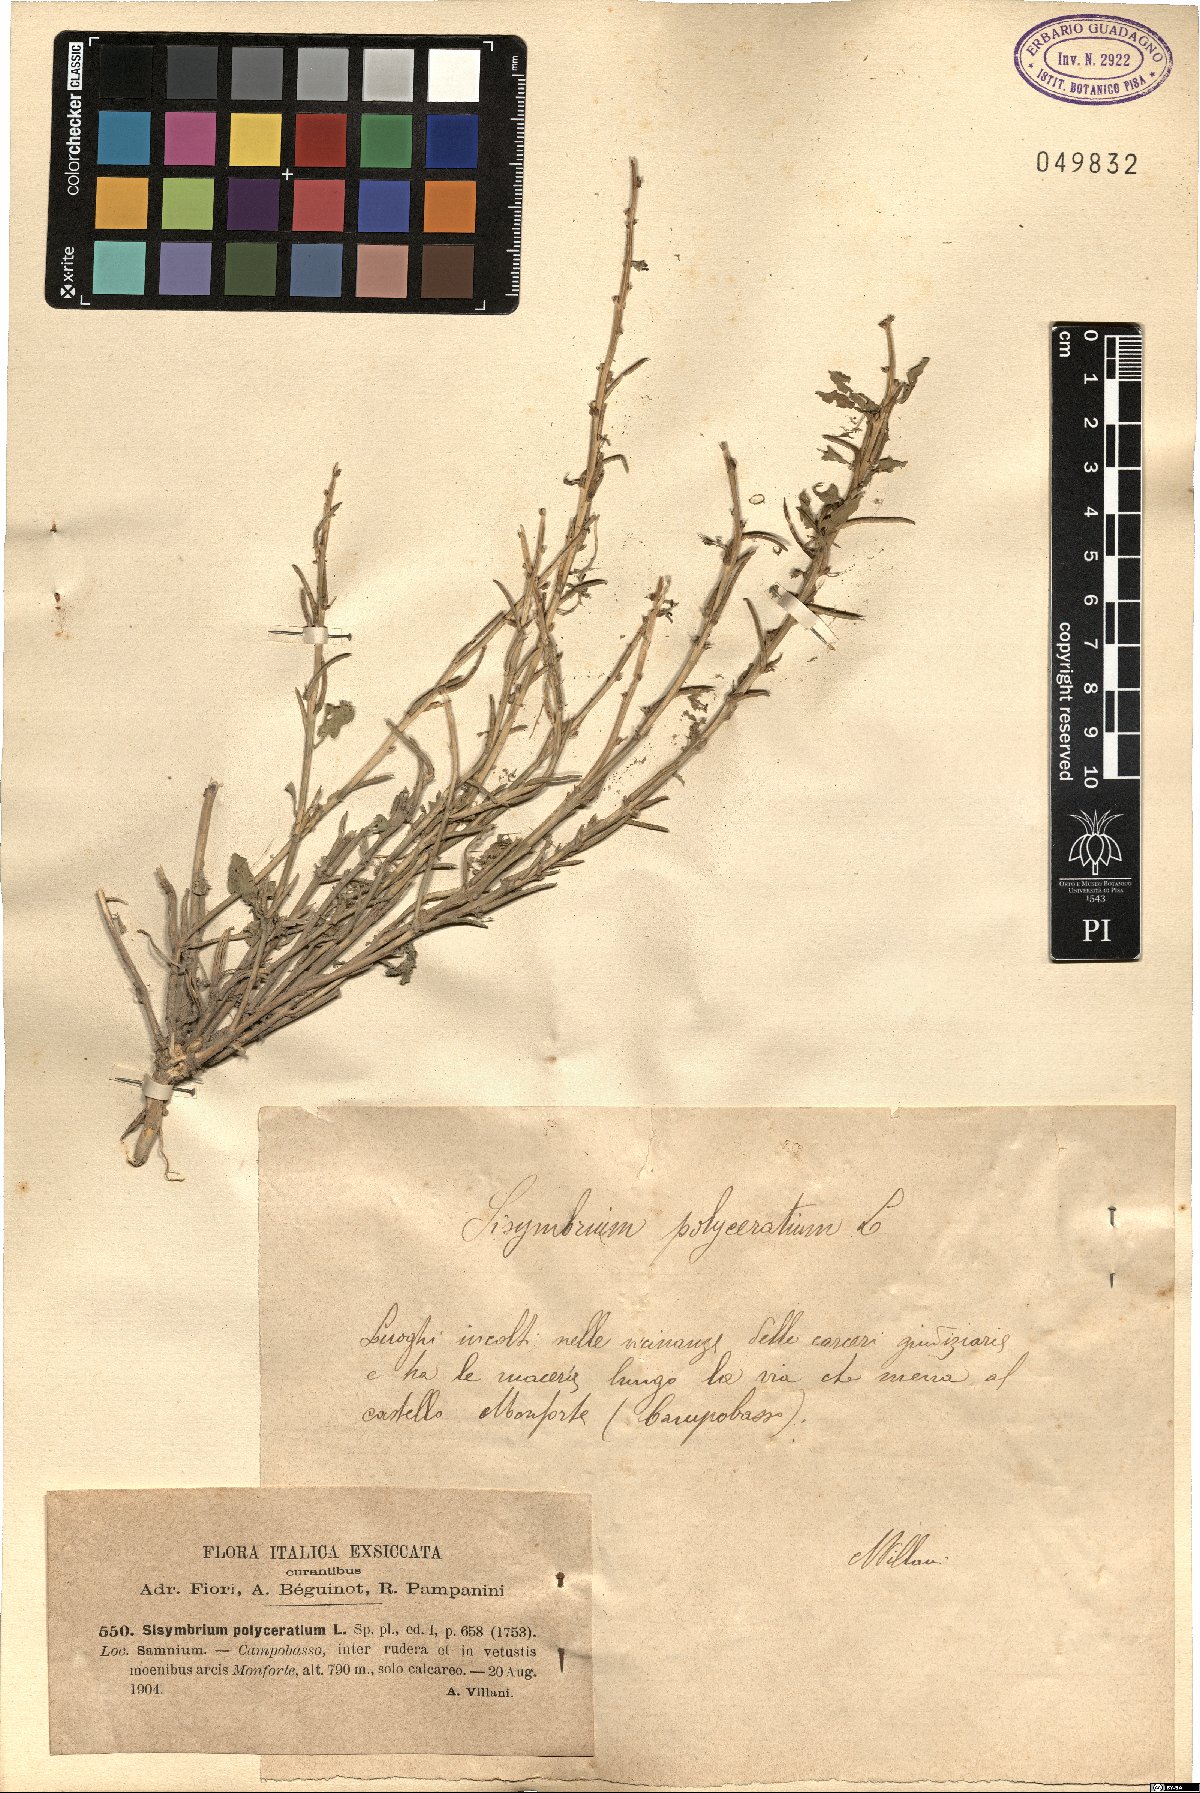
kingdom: Plantae
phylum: Tracheophyta
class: Magnoliopsida
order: Brassicales
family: Brassicaceae
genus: Sisymbrium
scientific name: Sisymbrium polyceratium
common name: Shortfruit hedgemustard
